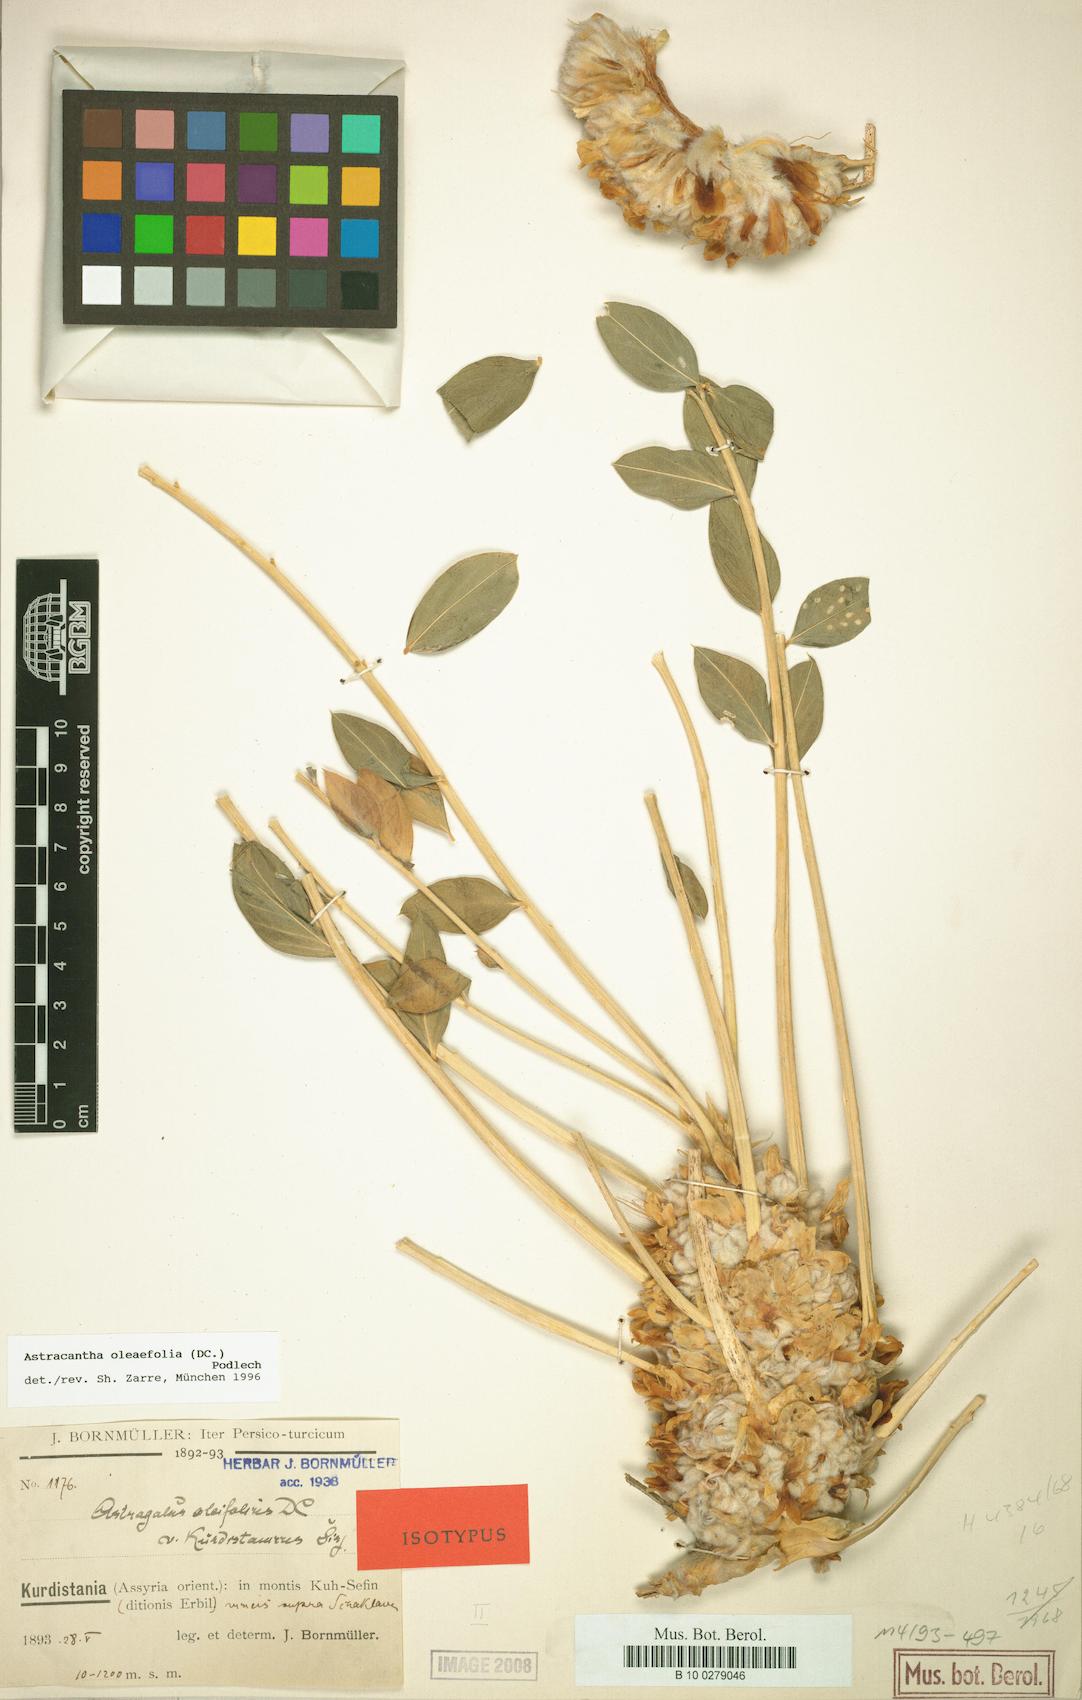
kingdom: Plantae
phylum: Tracheophyta
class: Magnoliopsida
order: Fabales
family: Fabaceae
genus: Astragalus
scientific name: Astragalus oleifolius
